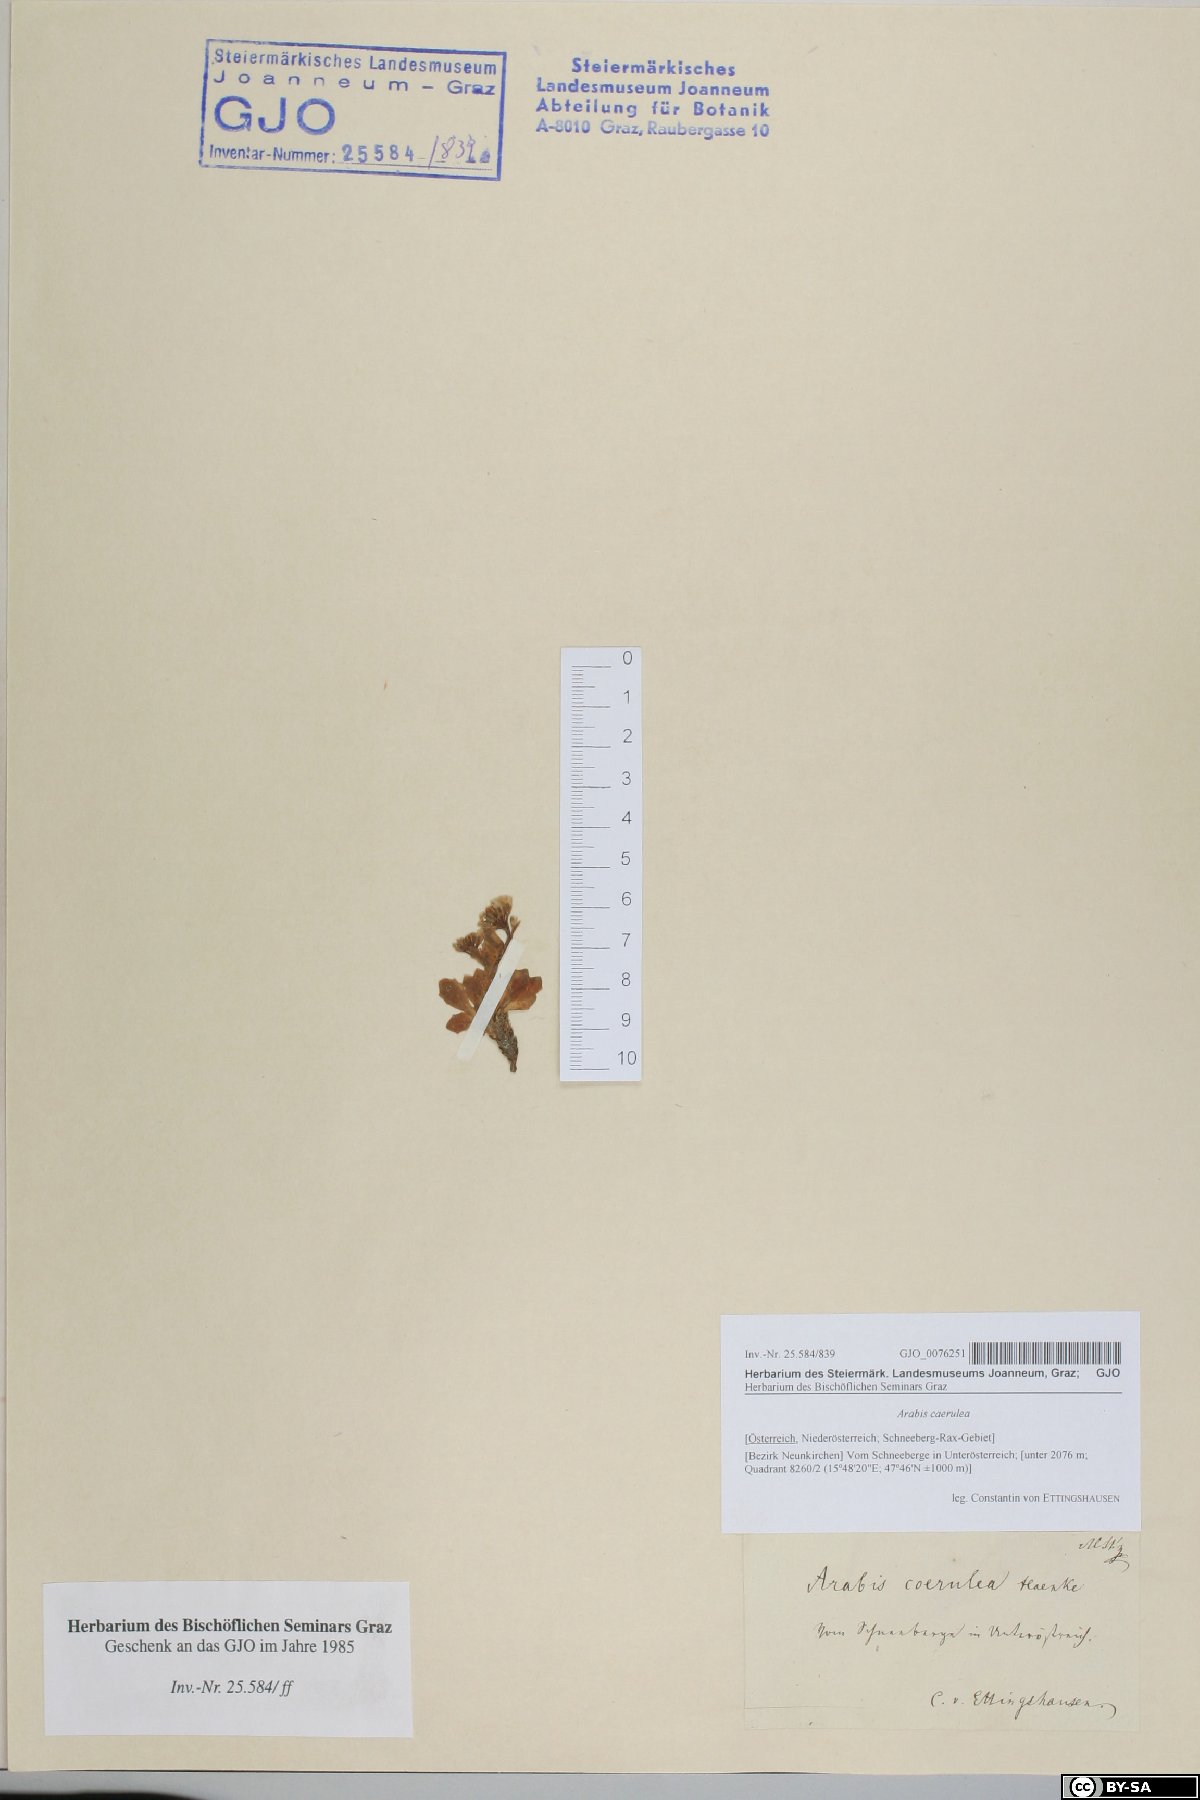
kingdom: Plantae
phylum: Tracheophyta
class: Magnoliopsida
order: Brassicales
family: Brassicaceae
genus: Arabis
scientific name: Arabis caerulea
